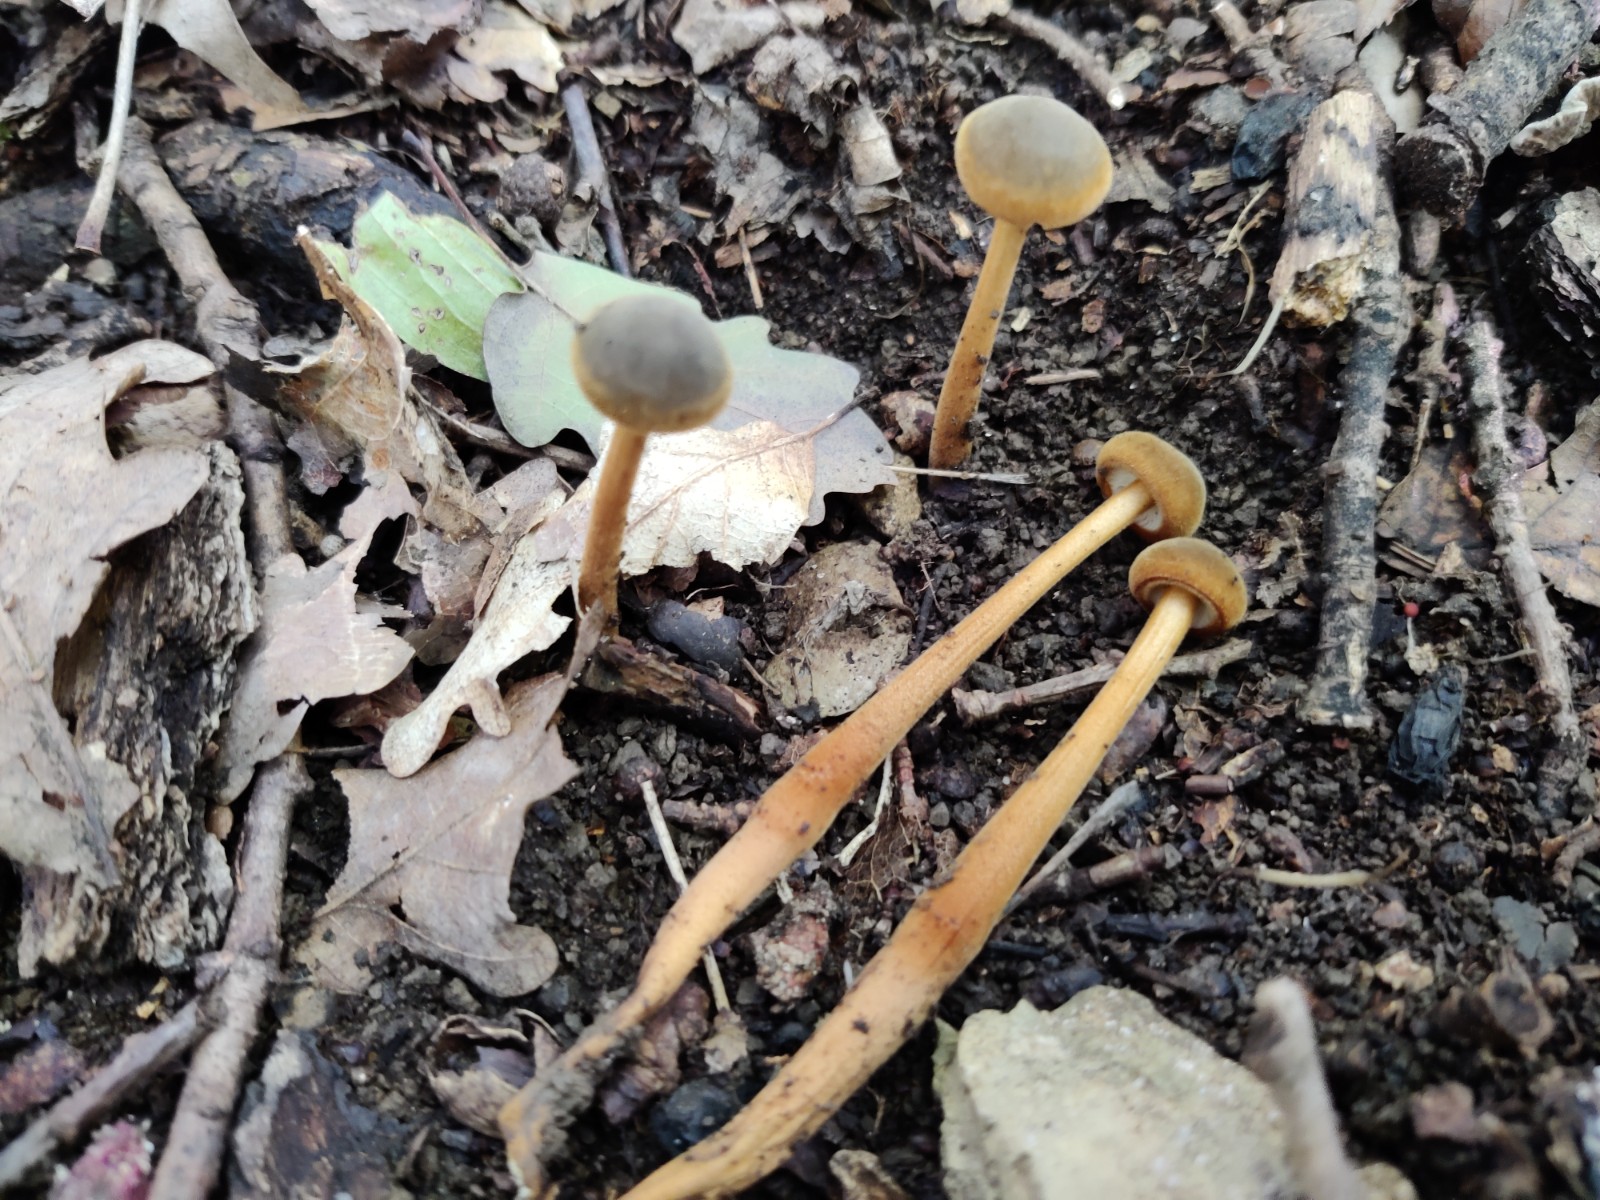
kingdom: Fungi
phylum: Basidiomycota
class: Agaricomycetes
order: Agaricales
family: Physalacriaceae
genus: Xerula
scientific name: Xerula pudens
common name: filtet pælerodshat
